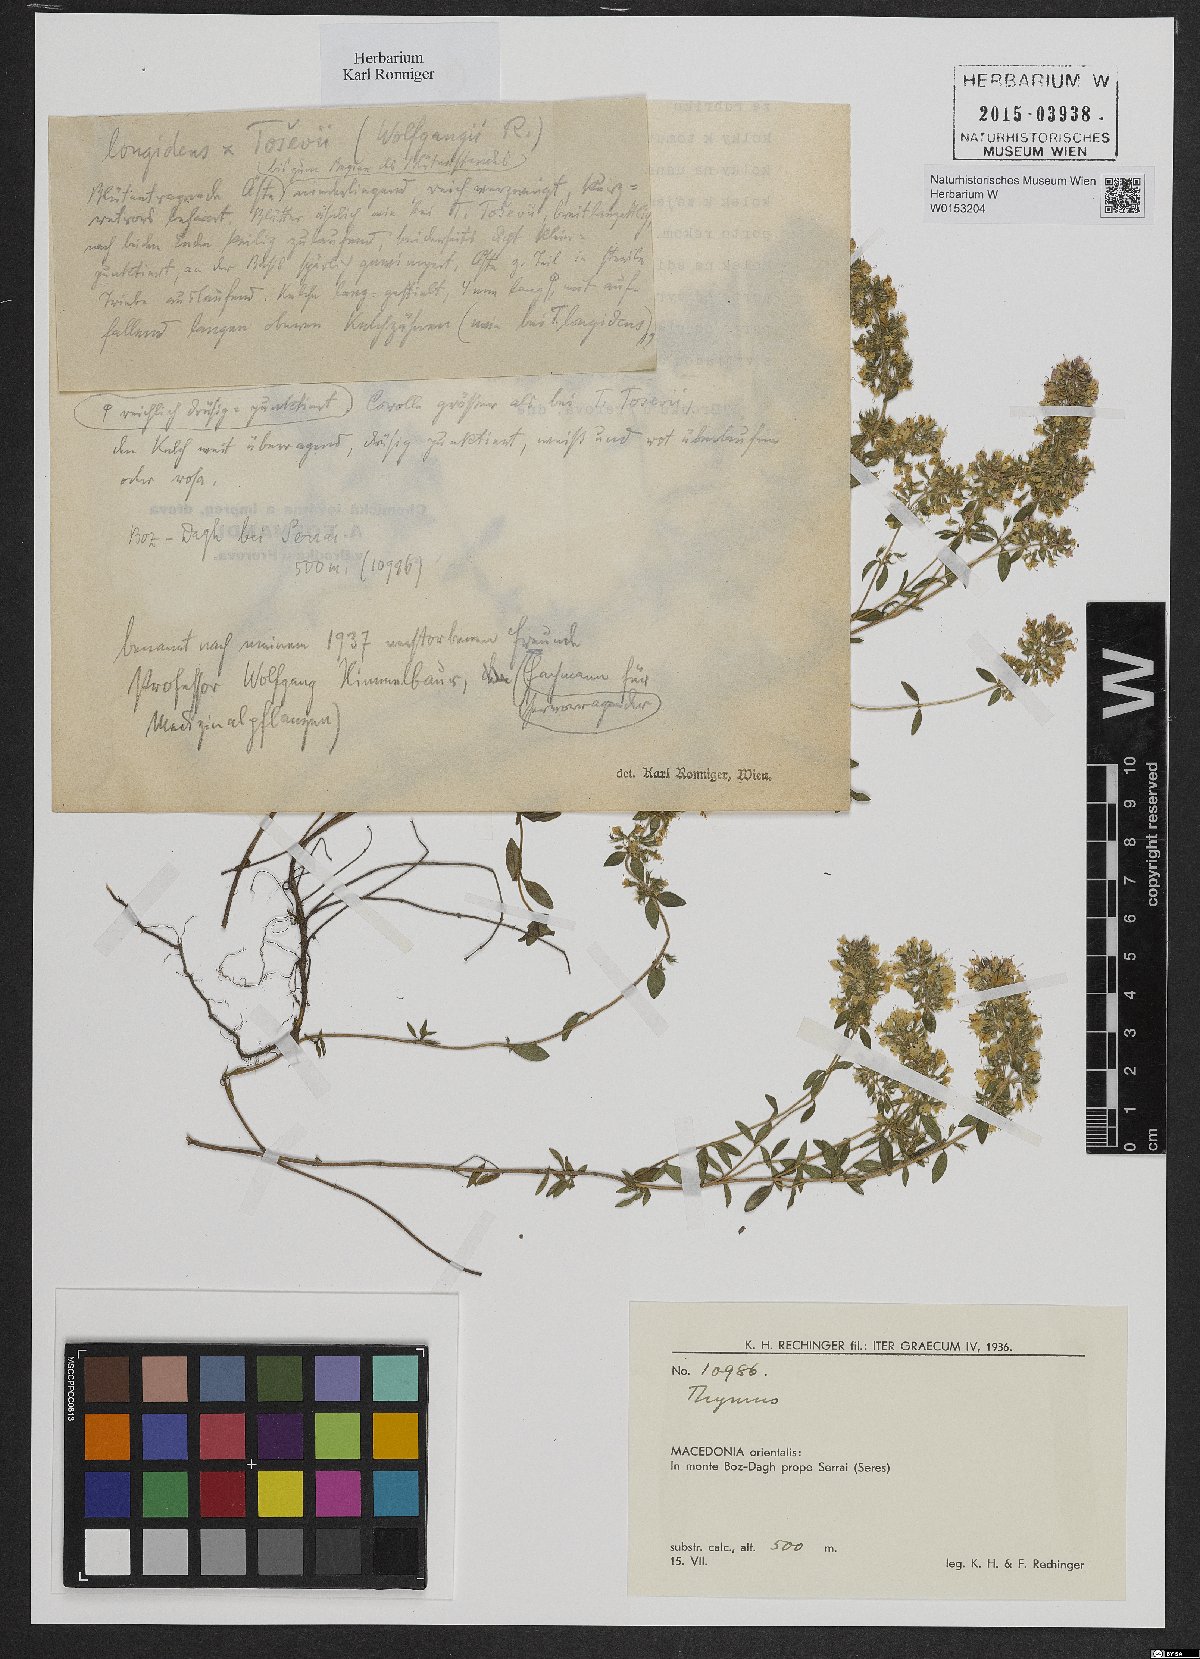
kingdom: Plantae
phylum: Tracheophyta
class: Magnoliopsida
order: Lamiales
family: Lamiaceae
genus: Thymus
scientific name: Thymus bermius
